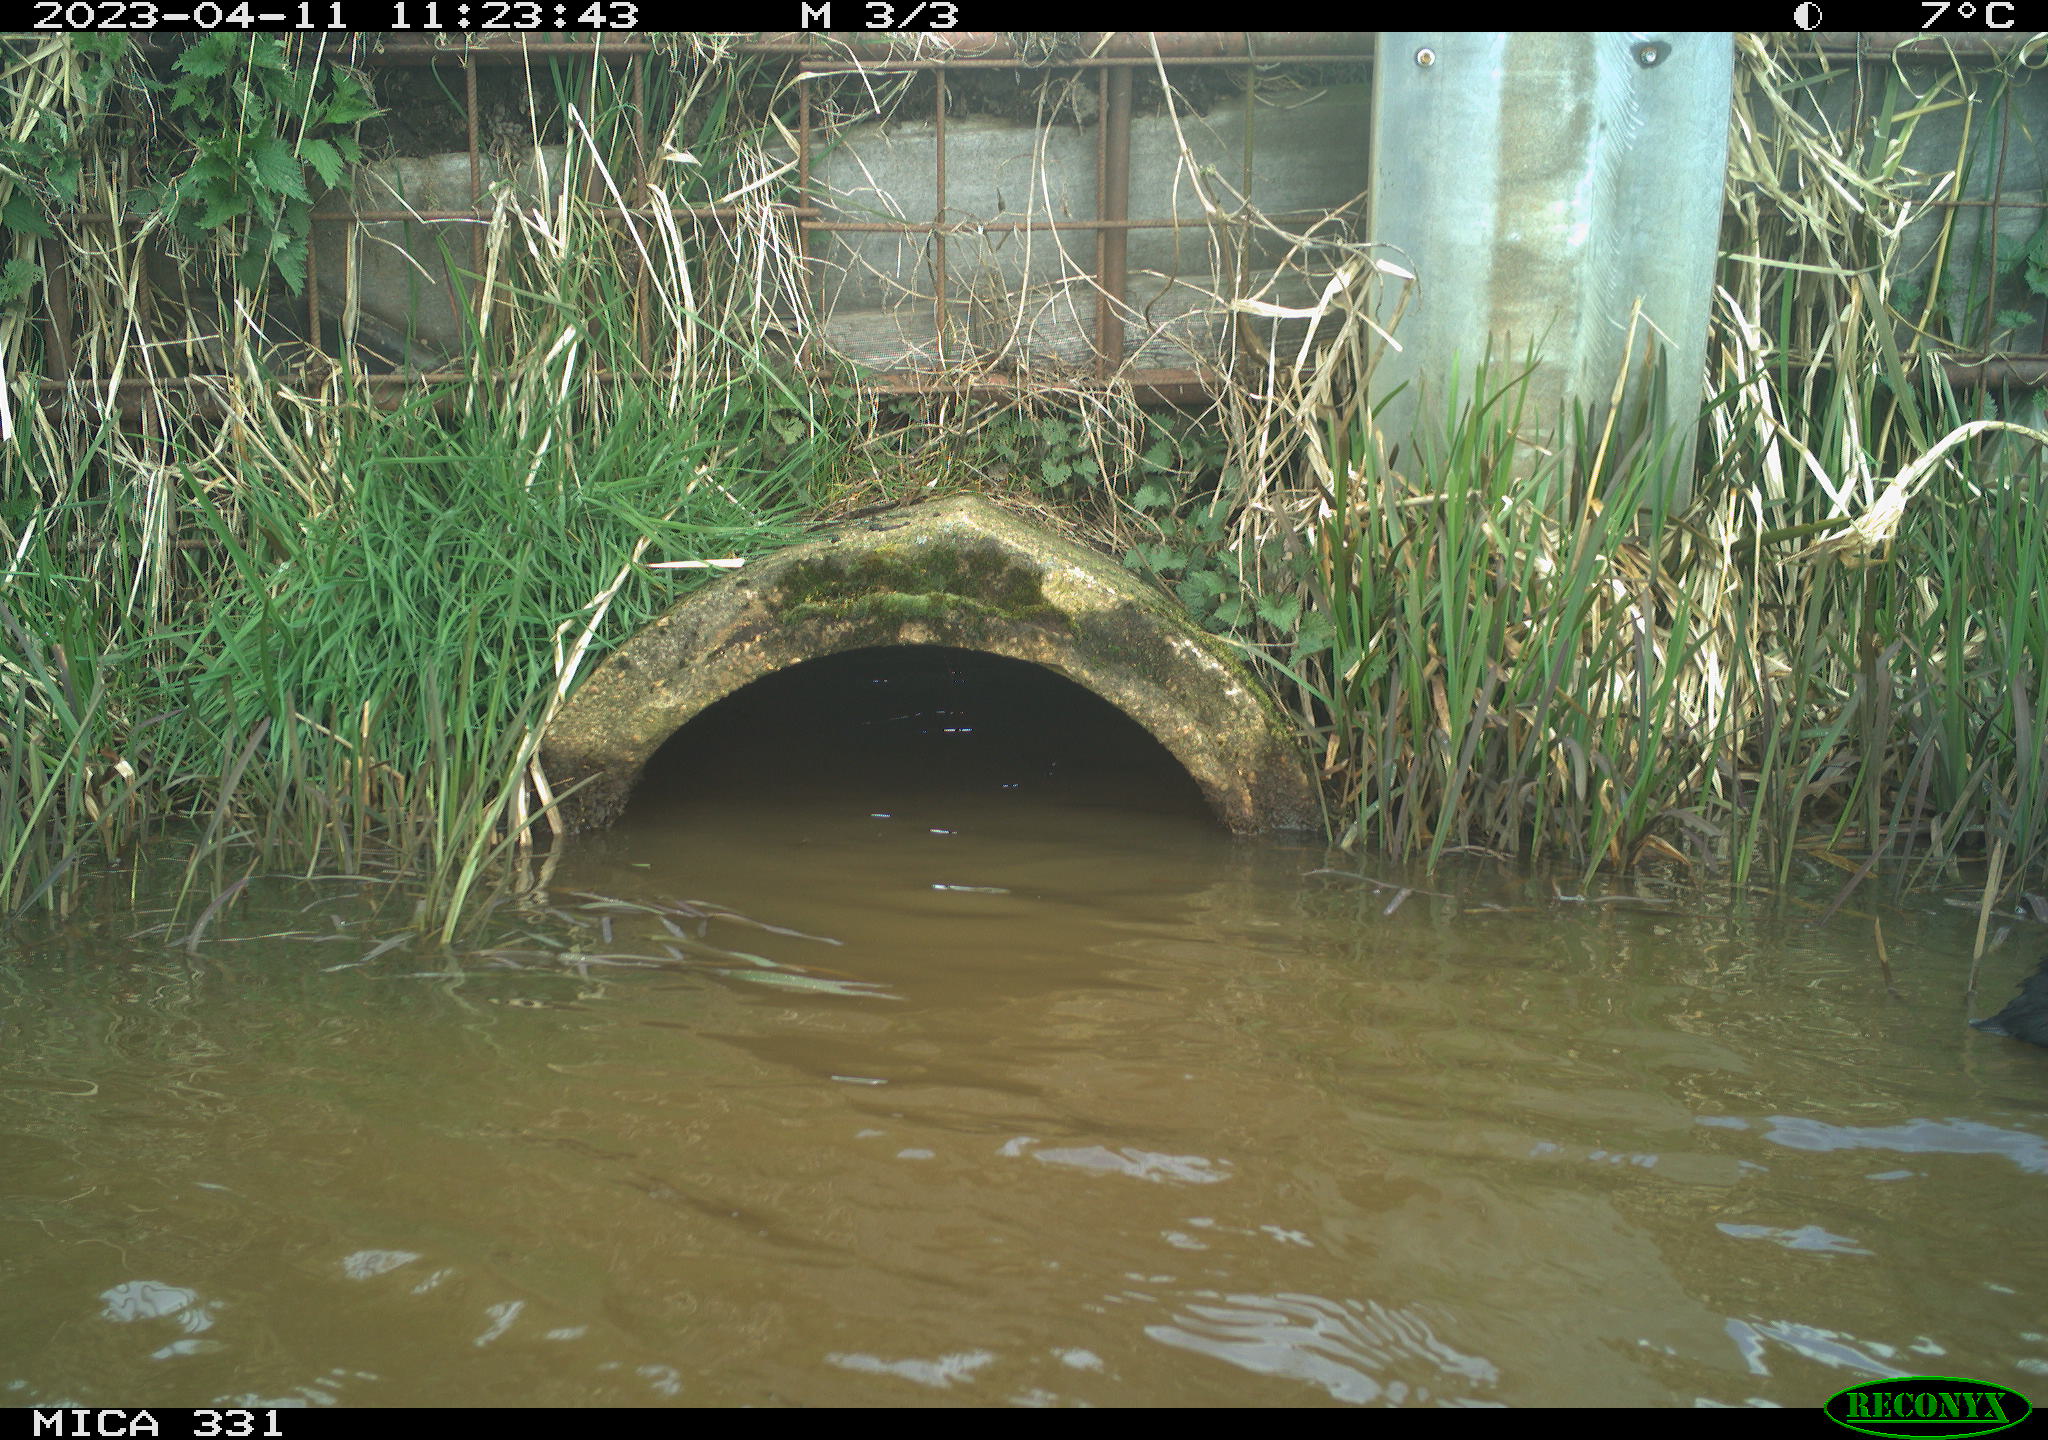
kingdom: Animalia
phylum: Chordata
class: Aves
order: Gruiformes
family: Rallidae
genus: Fulica
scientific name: Fulica atra
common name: Eurasian coot
